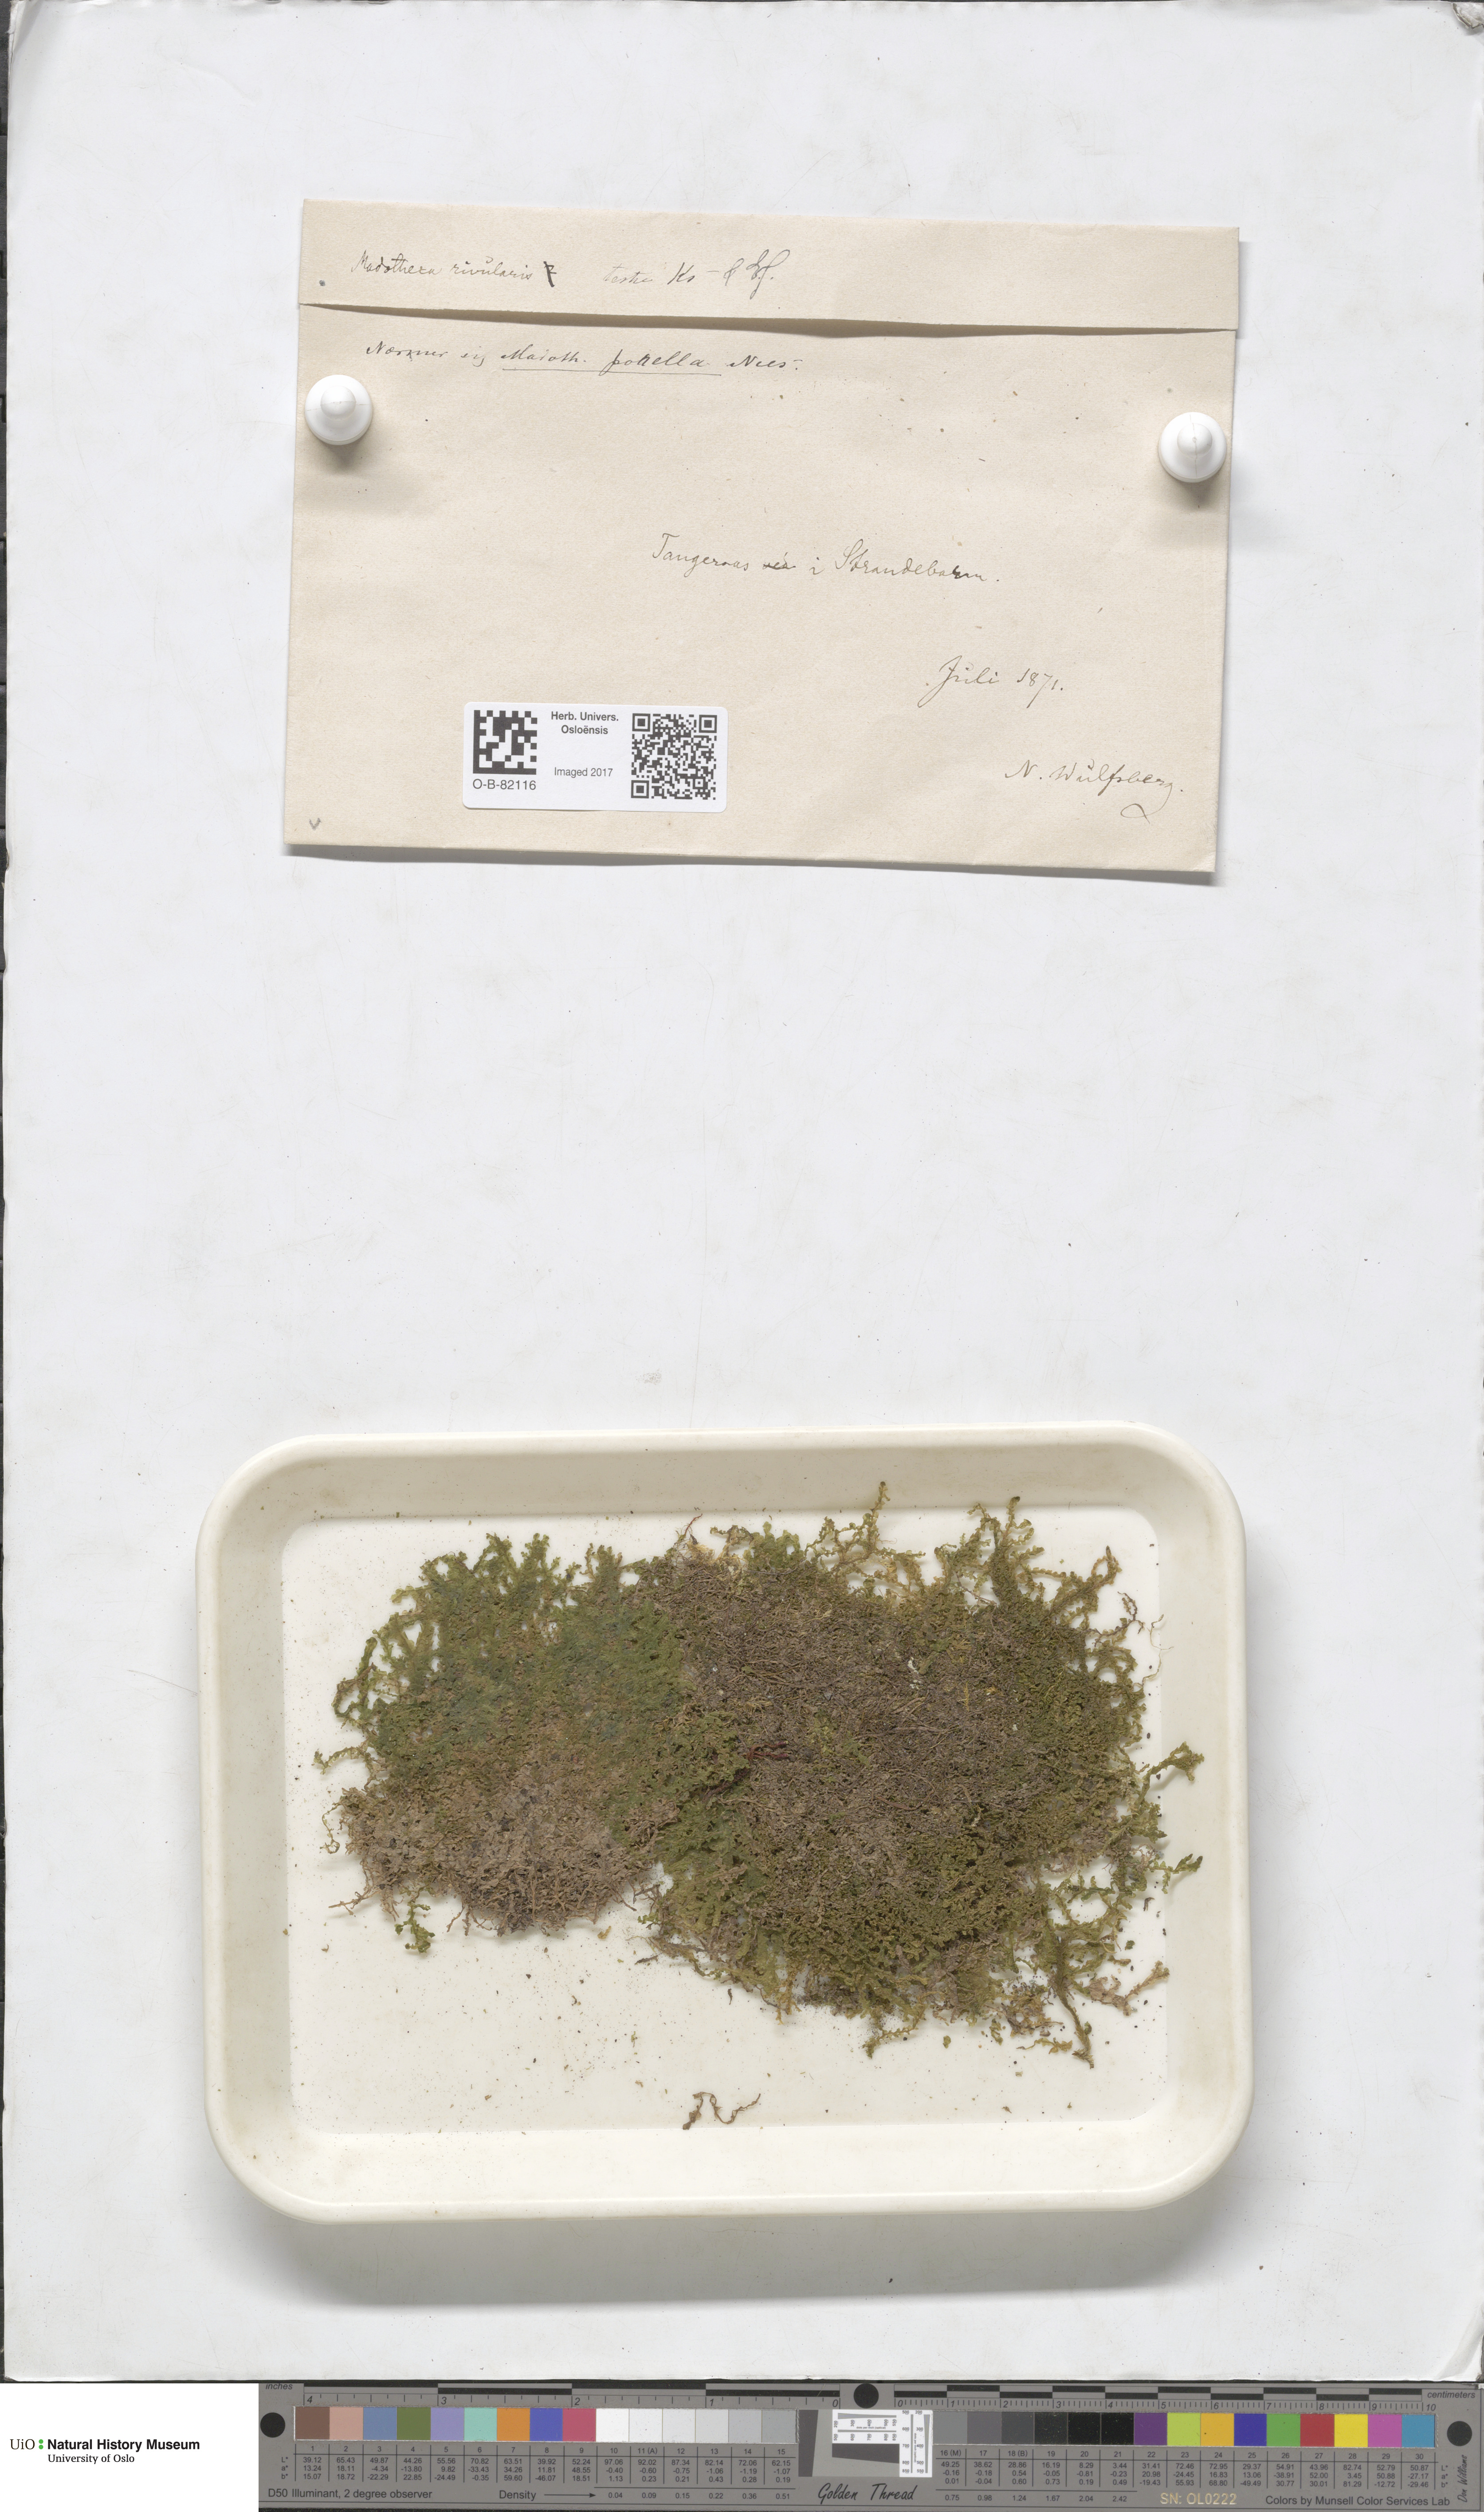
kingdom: Plantae
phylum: Marchantiophyta
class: Jungermanniopsida
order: Porellales
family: Porellaceae
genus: Porella
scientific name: Porella cordaeana
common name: Cliff scalewort
